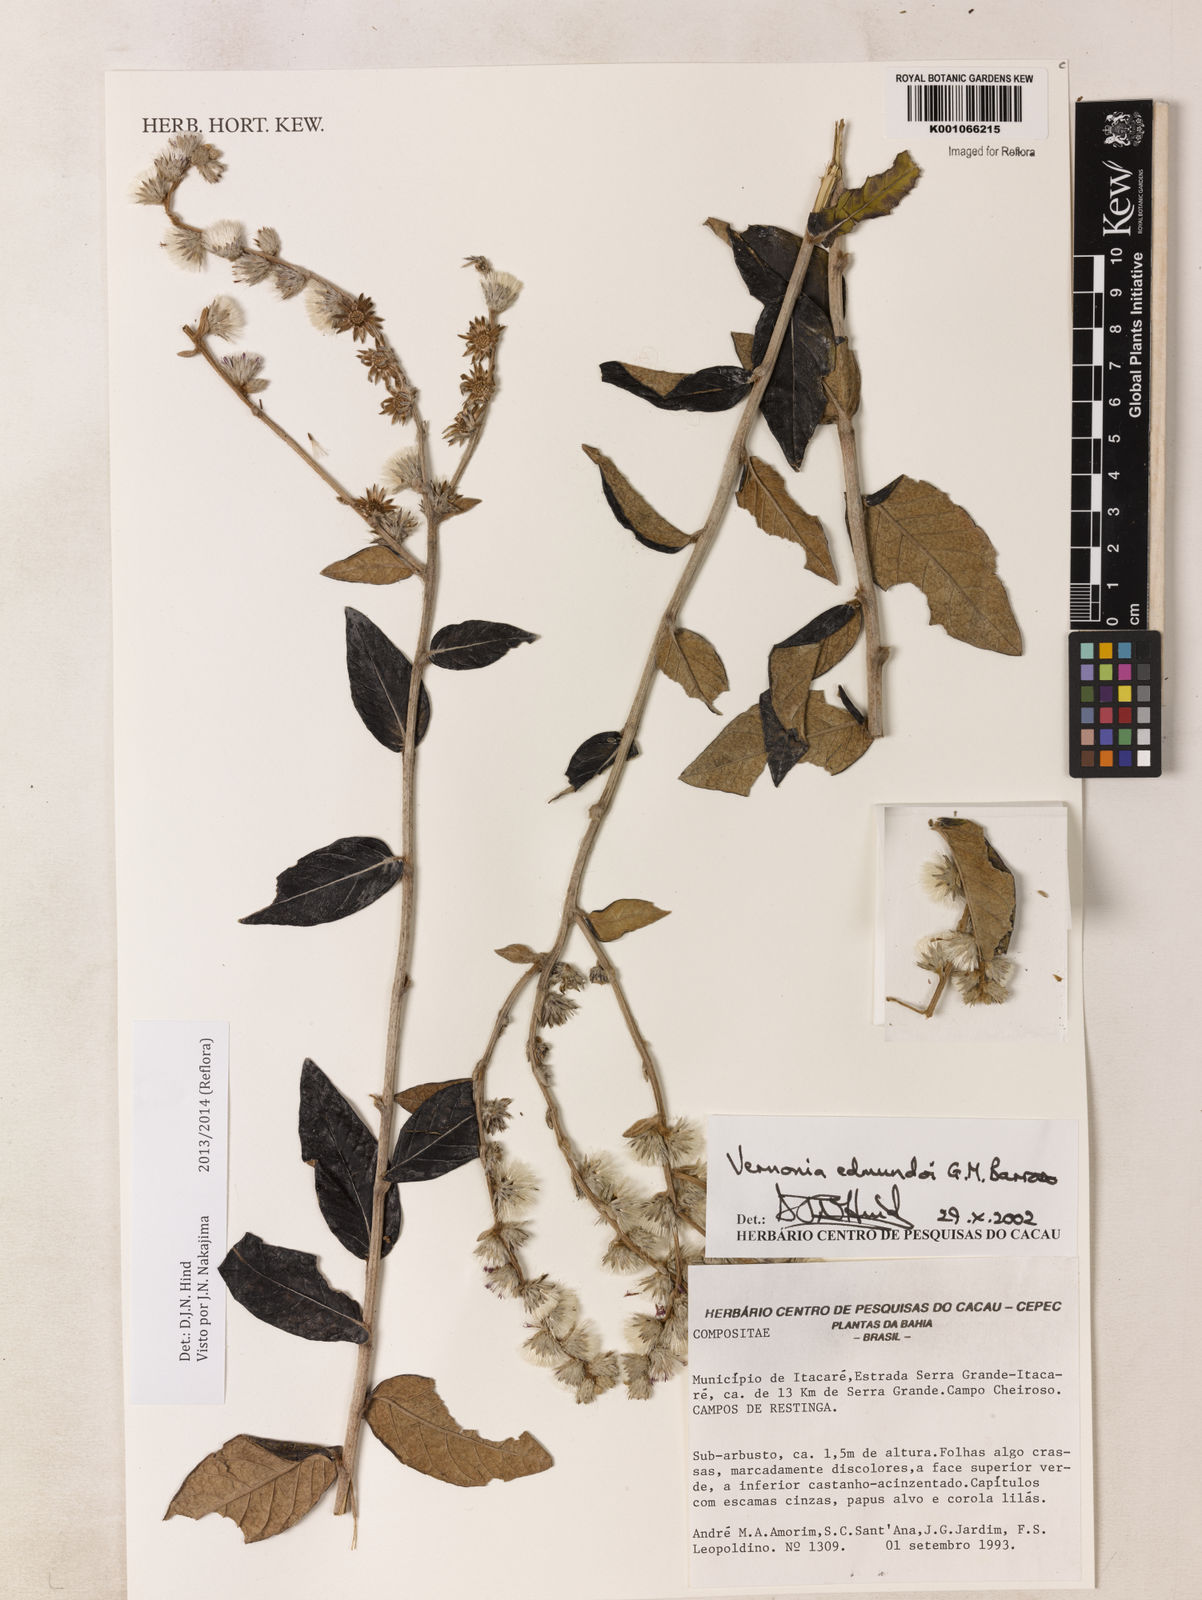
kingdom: Plantae
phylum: Tracheophyta
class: Magnoliopsida
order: Asterales
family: Asteraceae
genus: Lepidaploa
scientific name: Lepidaploa edmundoi
